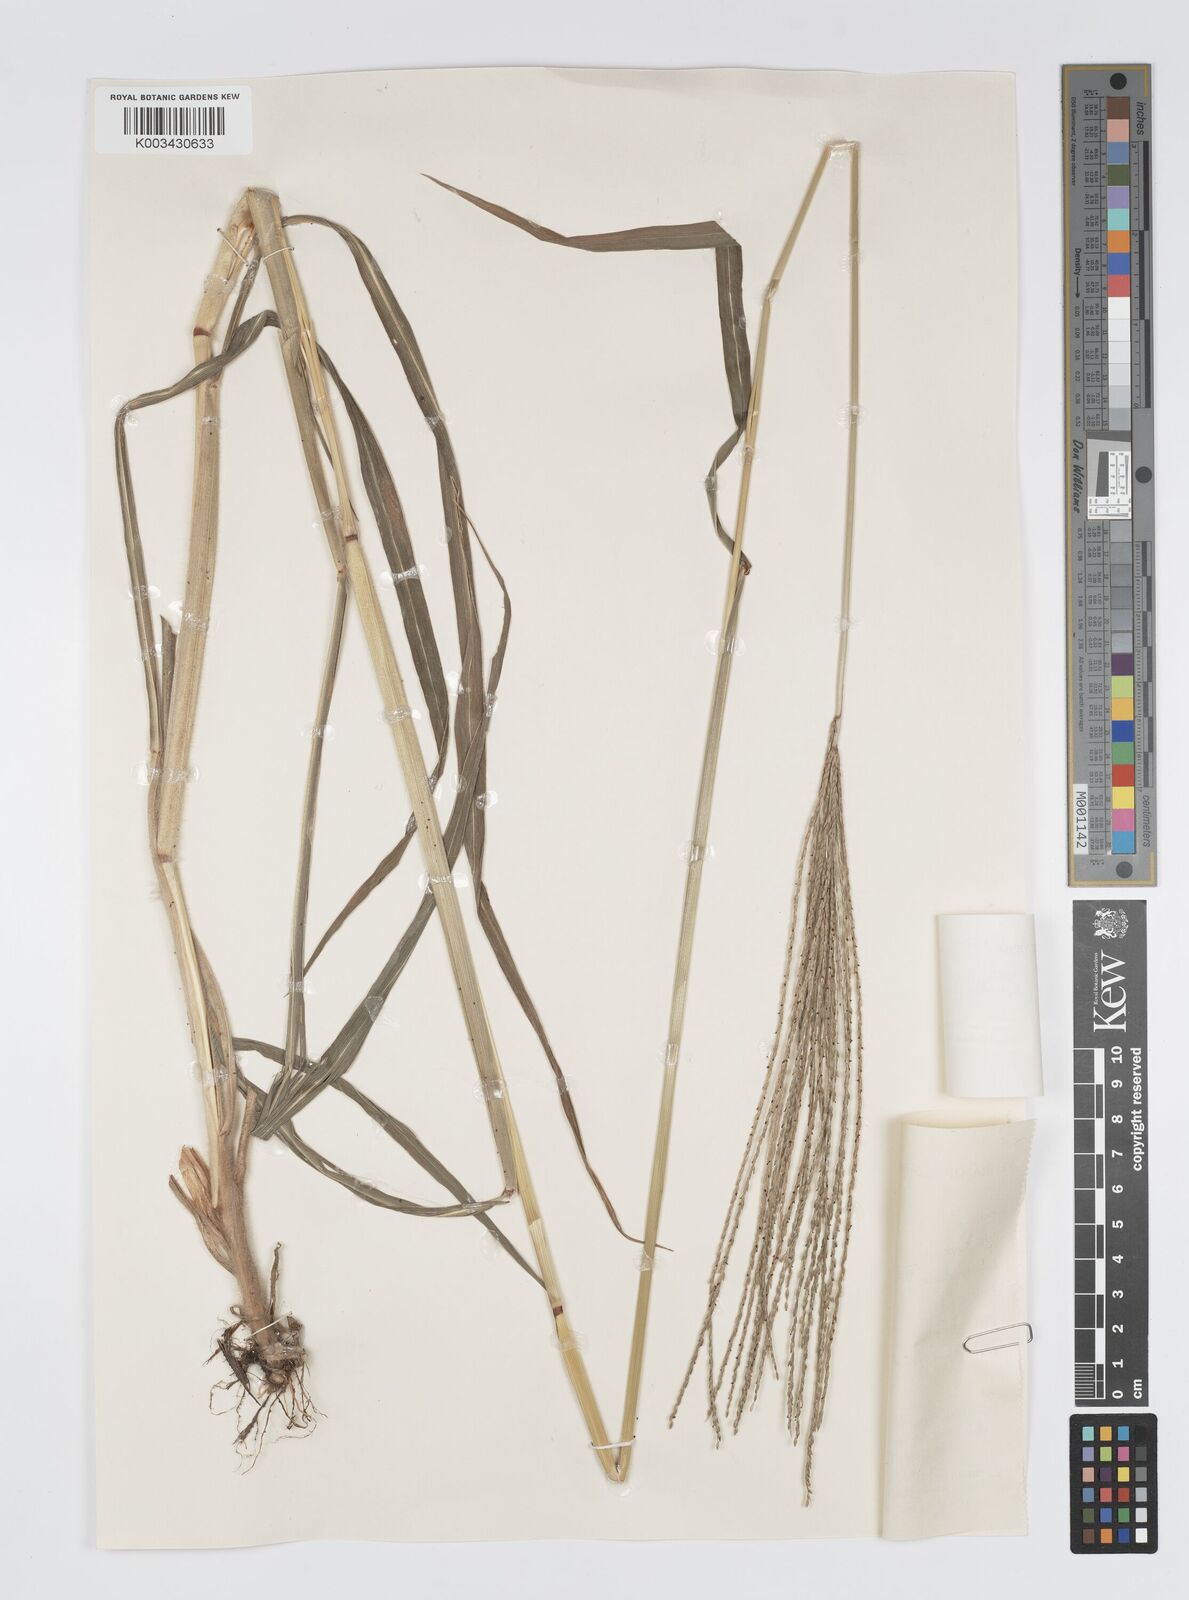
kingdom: Plantae
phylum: Tracheophyta
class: Liliopsida
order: Poales
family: Poaceae
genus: Digitaria
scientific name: Digitaria milanjiana
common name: Madagascar crabgrass
